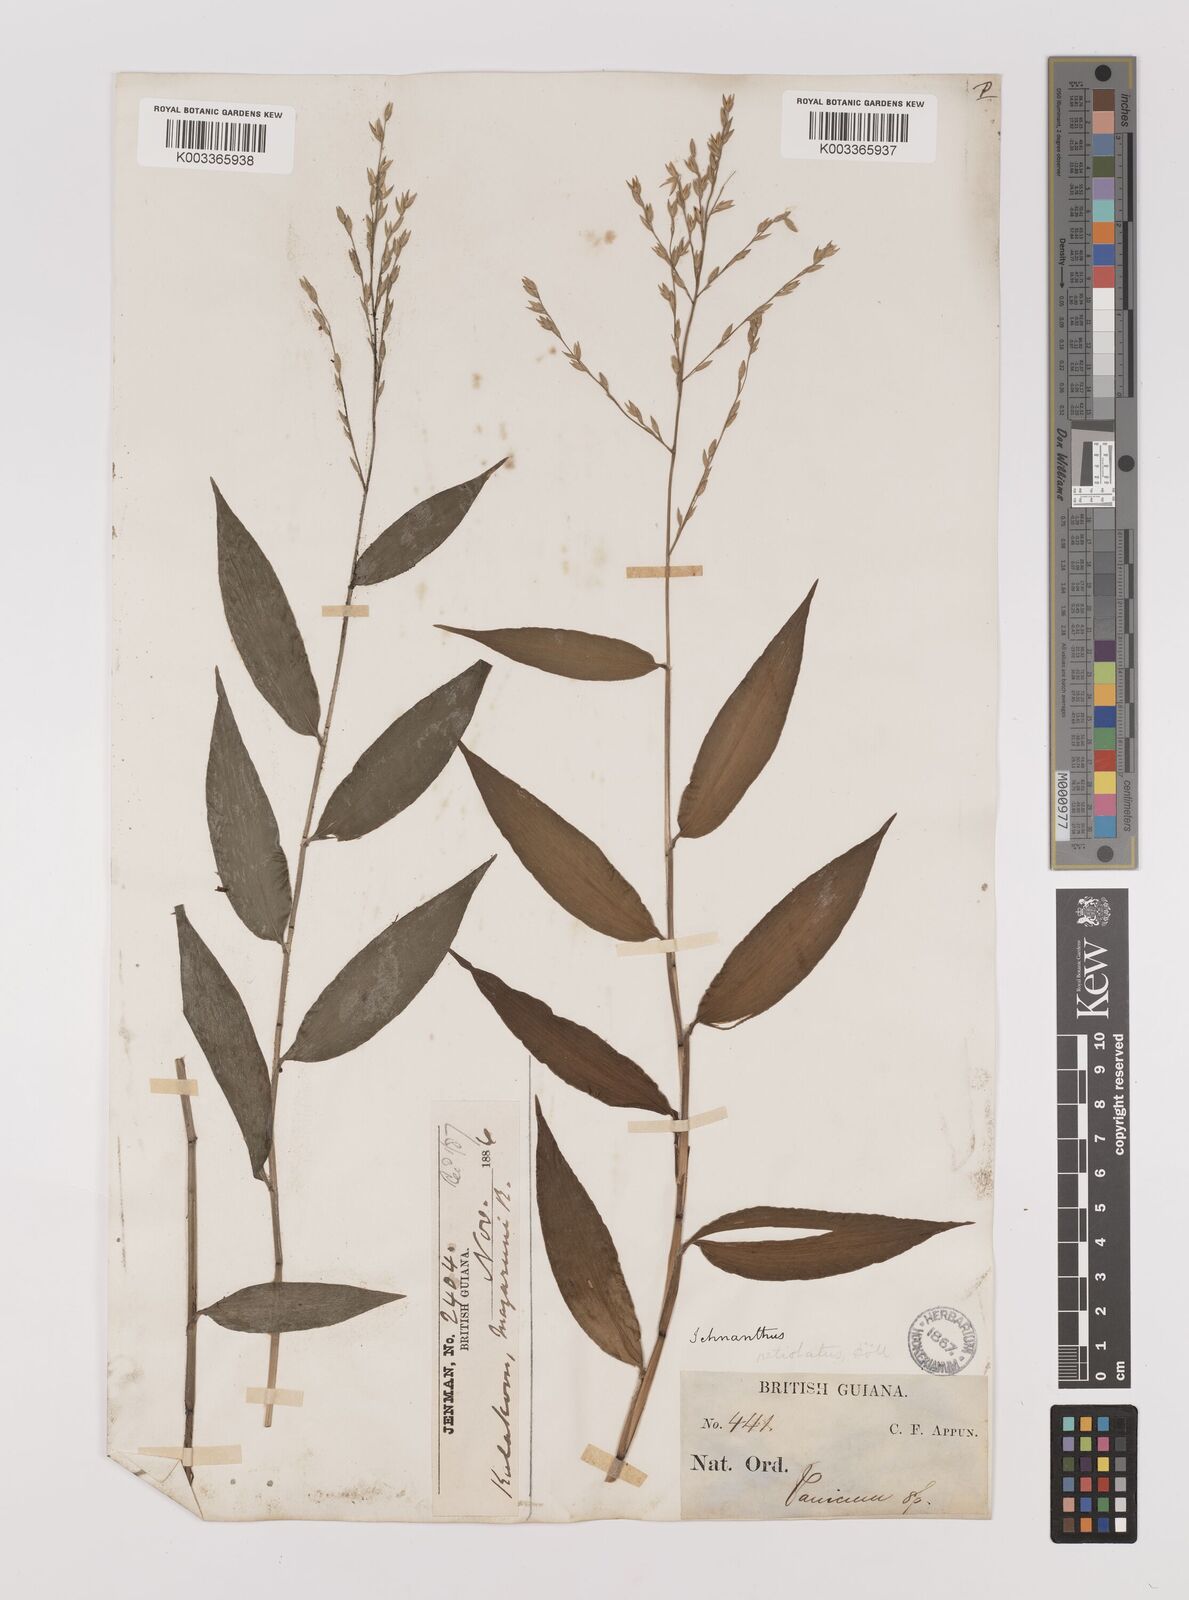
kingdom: Plantae
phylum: Tracheophyta
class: Liliopsida
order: Poales
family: Poaceae
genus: Ichnanthus
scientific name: Ichnanthus nemoralis
